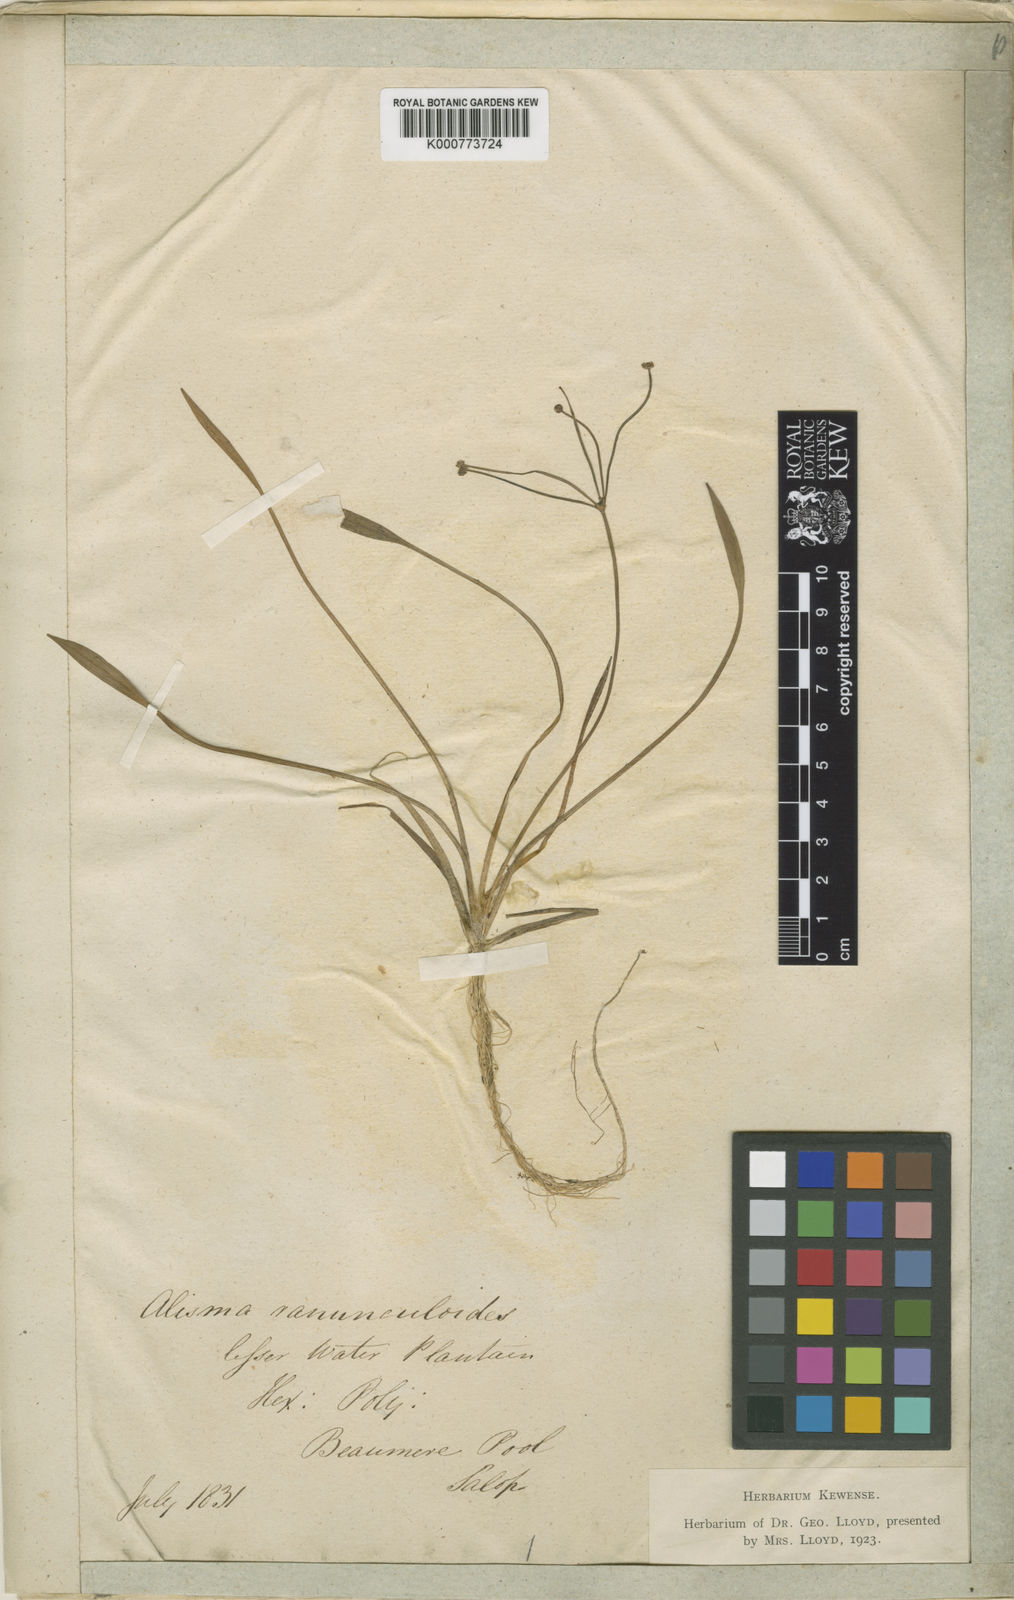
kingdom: Plantae
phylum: Tracheophyta
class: Liliopsida
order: Alismatales
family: Alismataceae
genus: Baldellia
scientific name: Baldellia ranunculoides
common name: Lesser water-plantain
